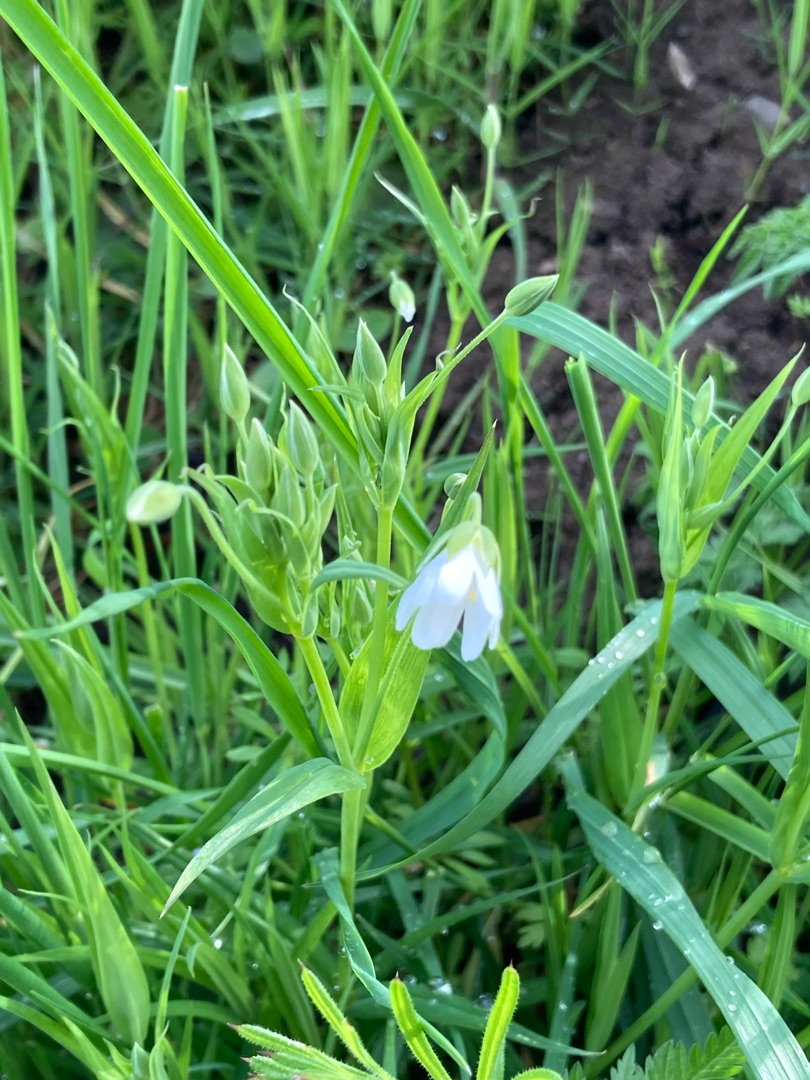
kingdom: Plantae
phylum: Tracheophyta
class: Magnoliopsida
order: Caryophyllales
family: Caryophyllaceae
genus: Rabelera
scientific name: Rabelera holostea
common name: Stor fladstjerne
